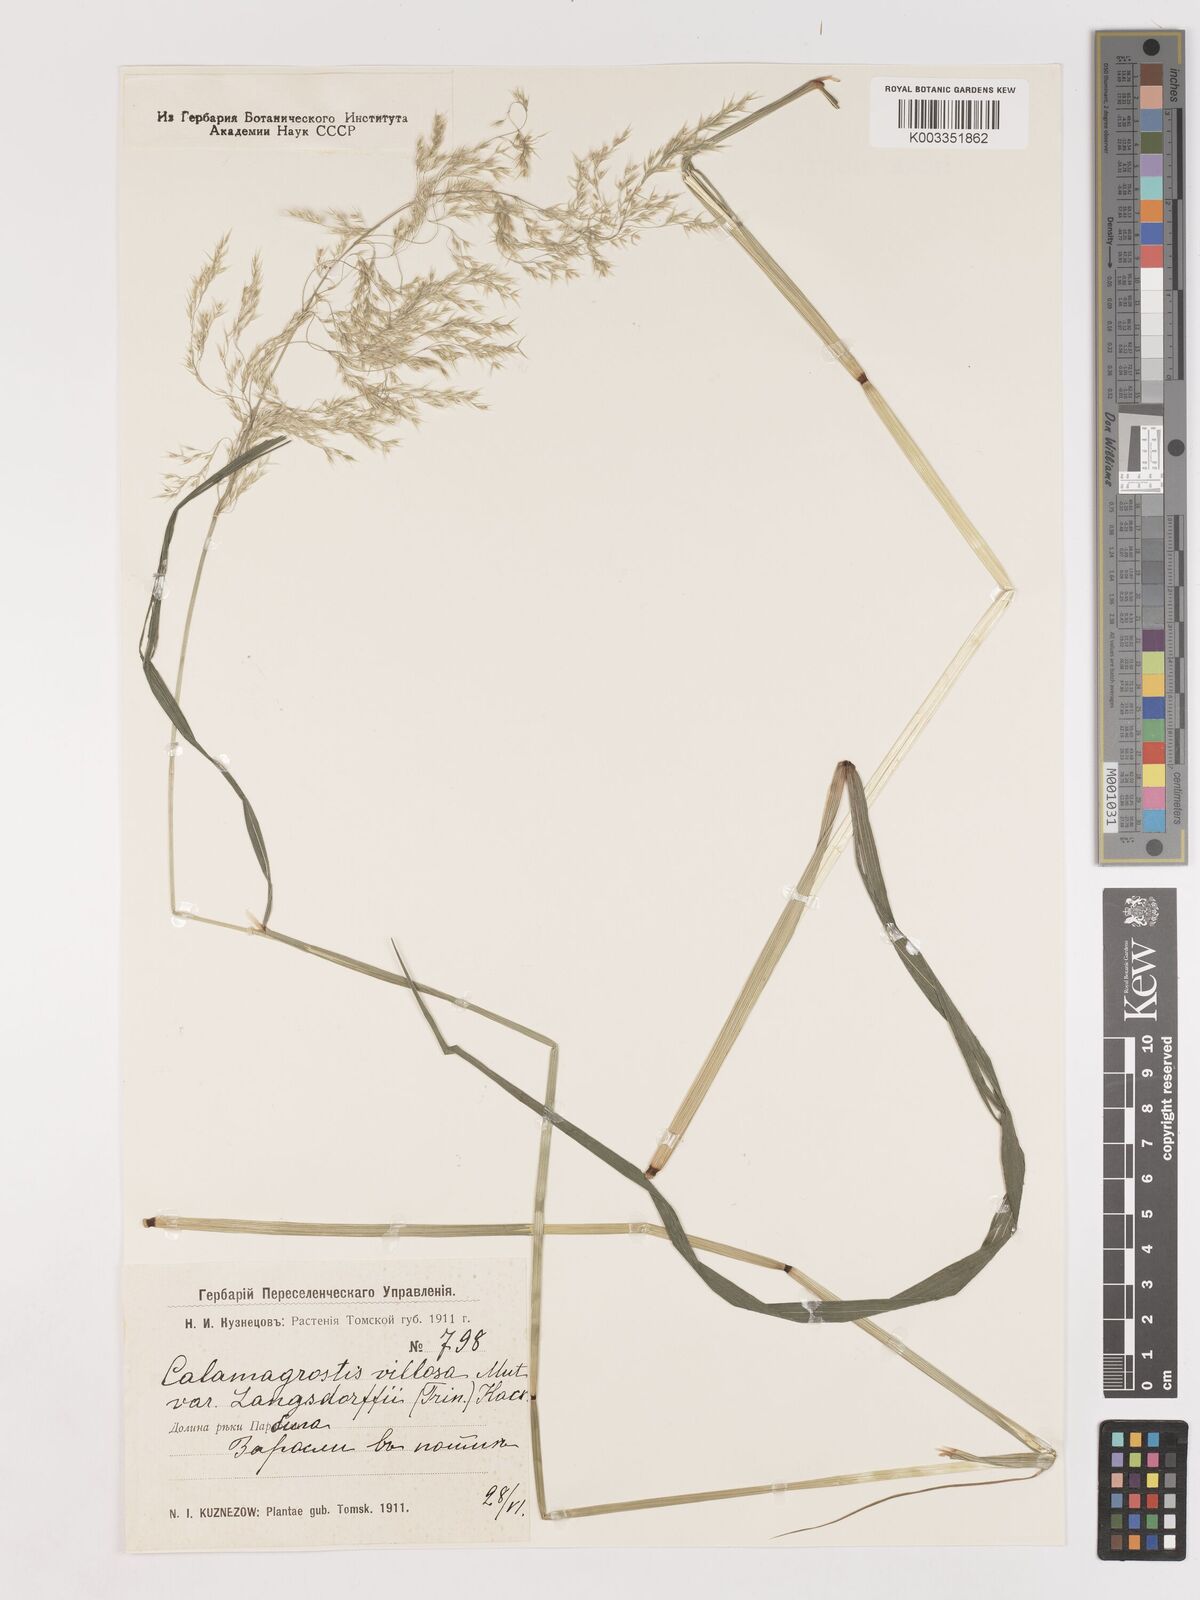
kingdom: Plantae
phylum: Tracheophyta
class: Liliopsida
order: Poales
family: Poaceae
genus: Calamagrostis
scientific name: Calamagrostis villosa
